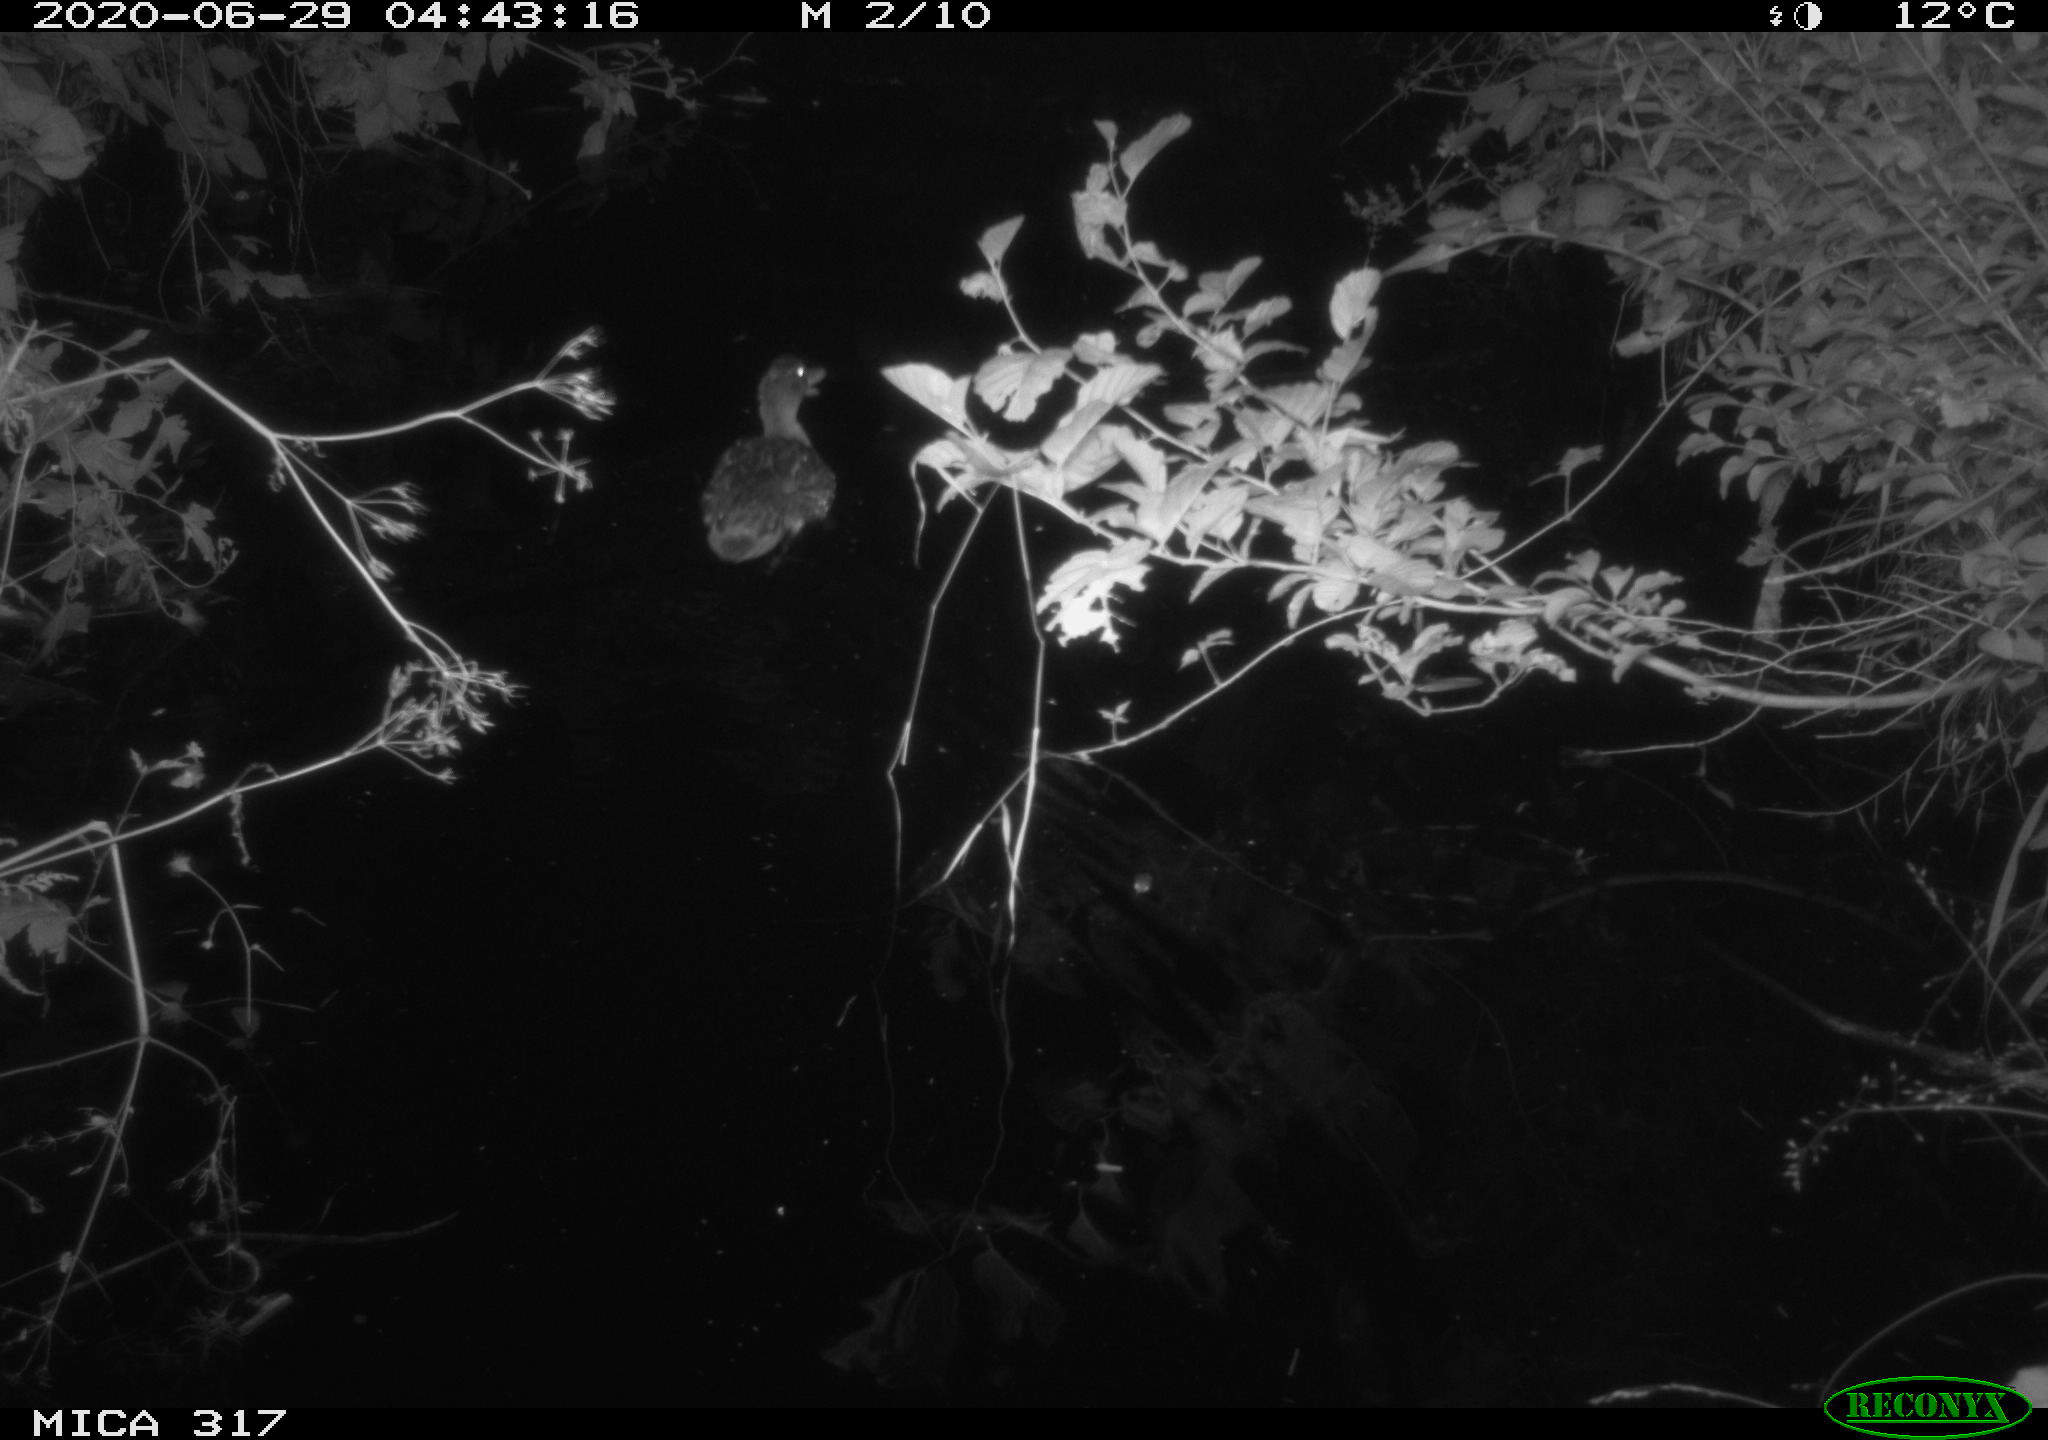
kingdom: Animalia
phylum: Chordata
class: Aves
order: Anseriformes
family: Anatidae
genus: Anas
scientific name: Anas platyrhynchos
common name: Mallard
